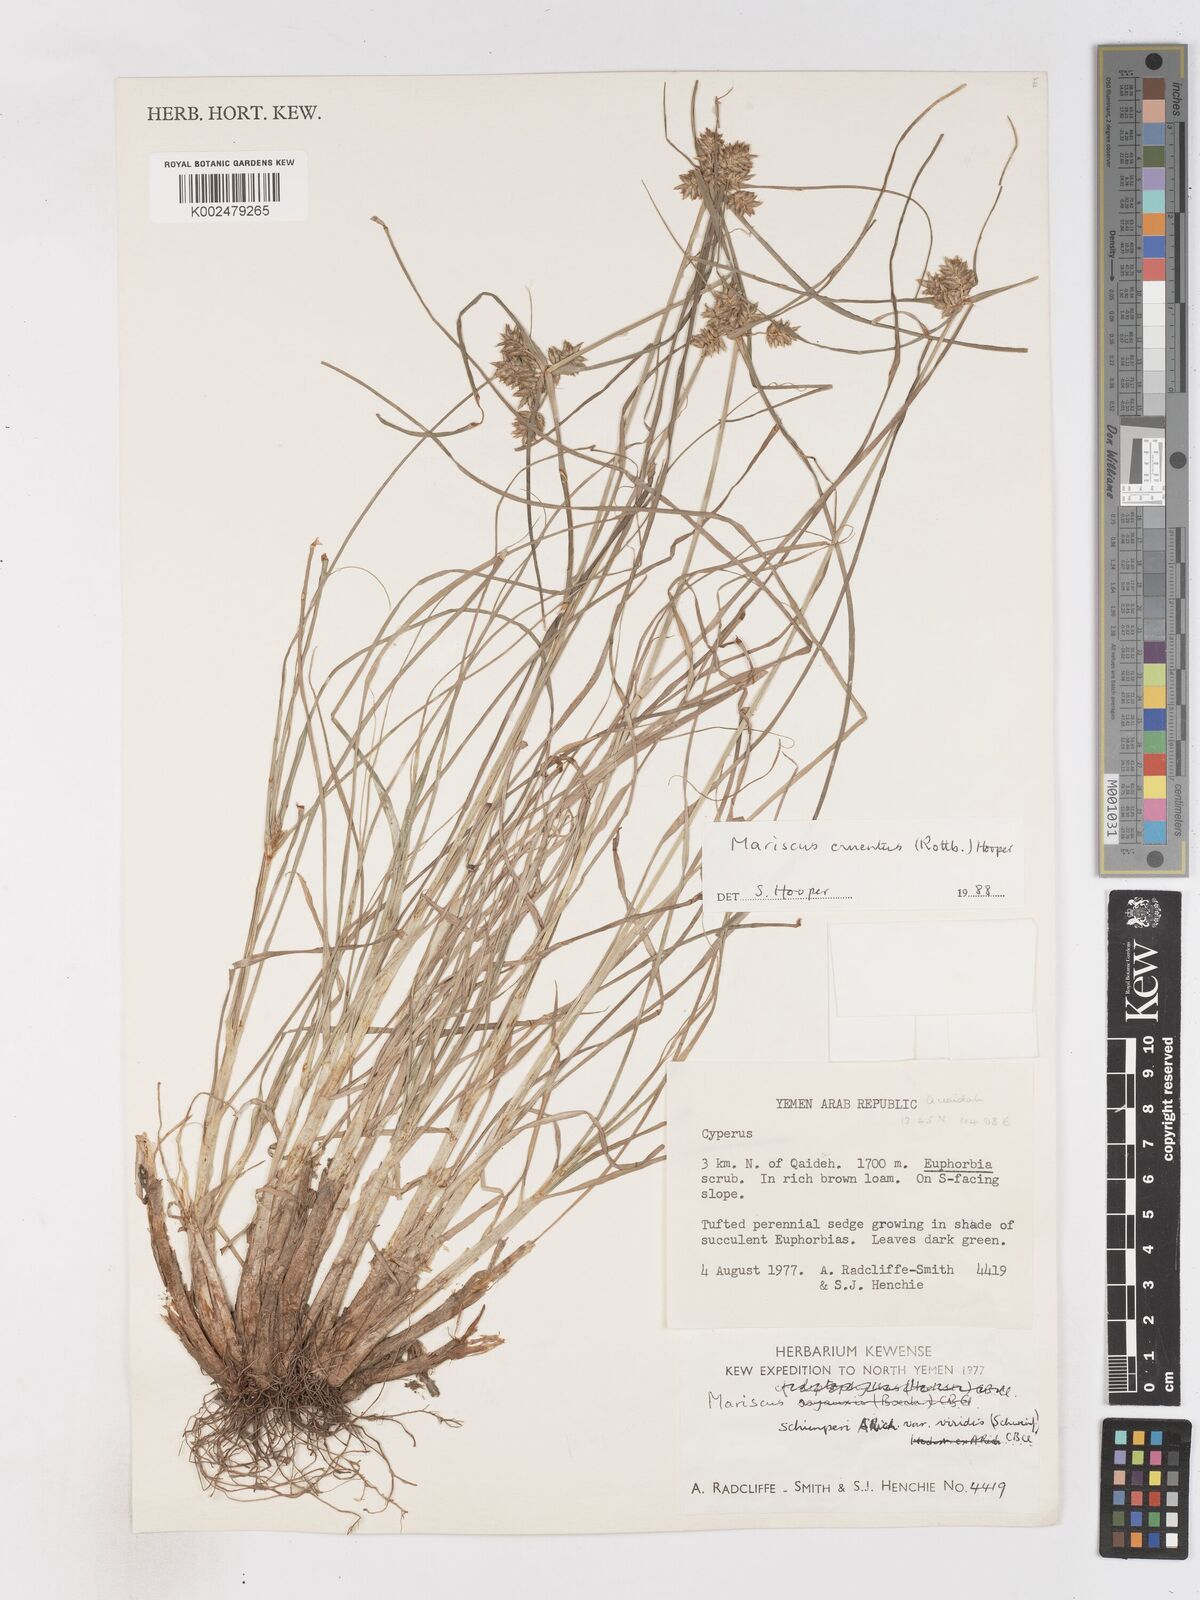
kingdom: Plantae
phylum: Tracheophyta
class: Liliopsida
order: Poales
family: Cyperaceae
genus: Cyperus
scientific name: Cyperus cruentus
